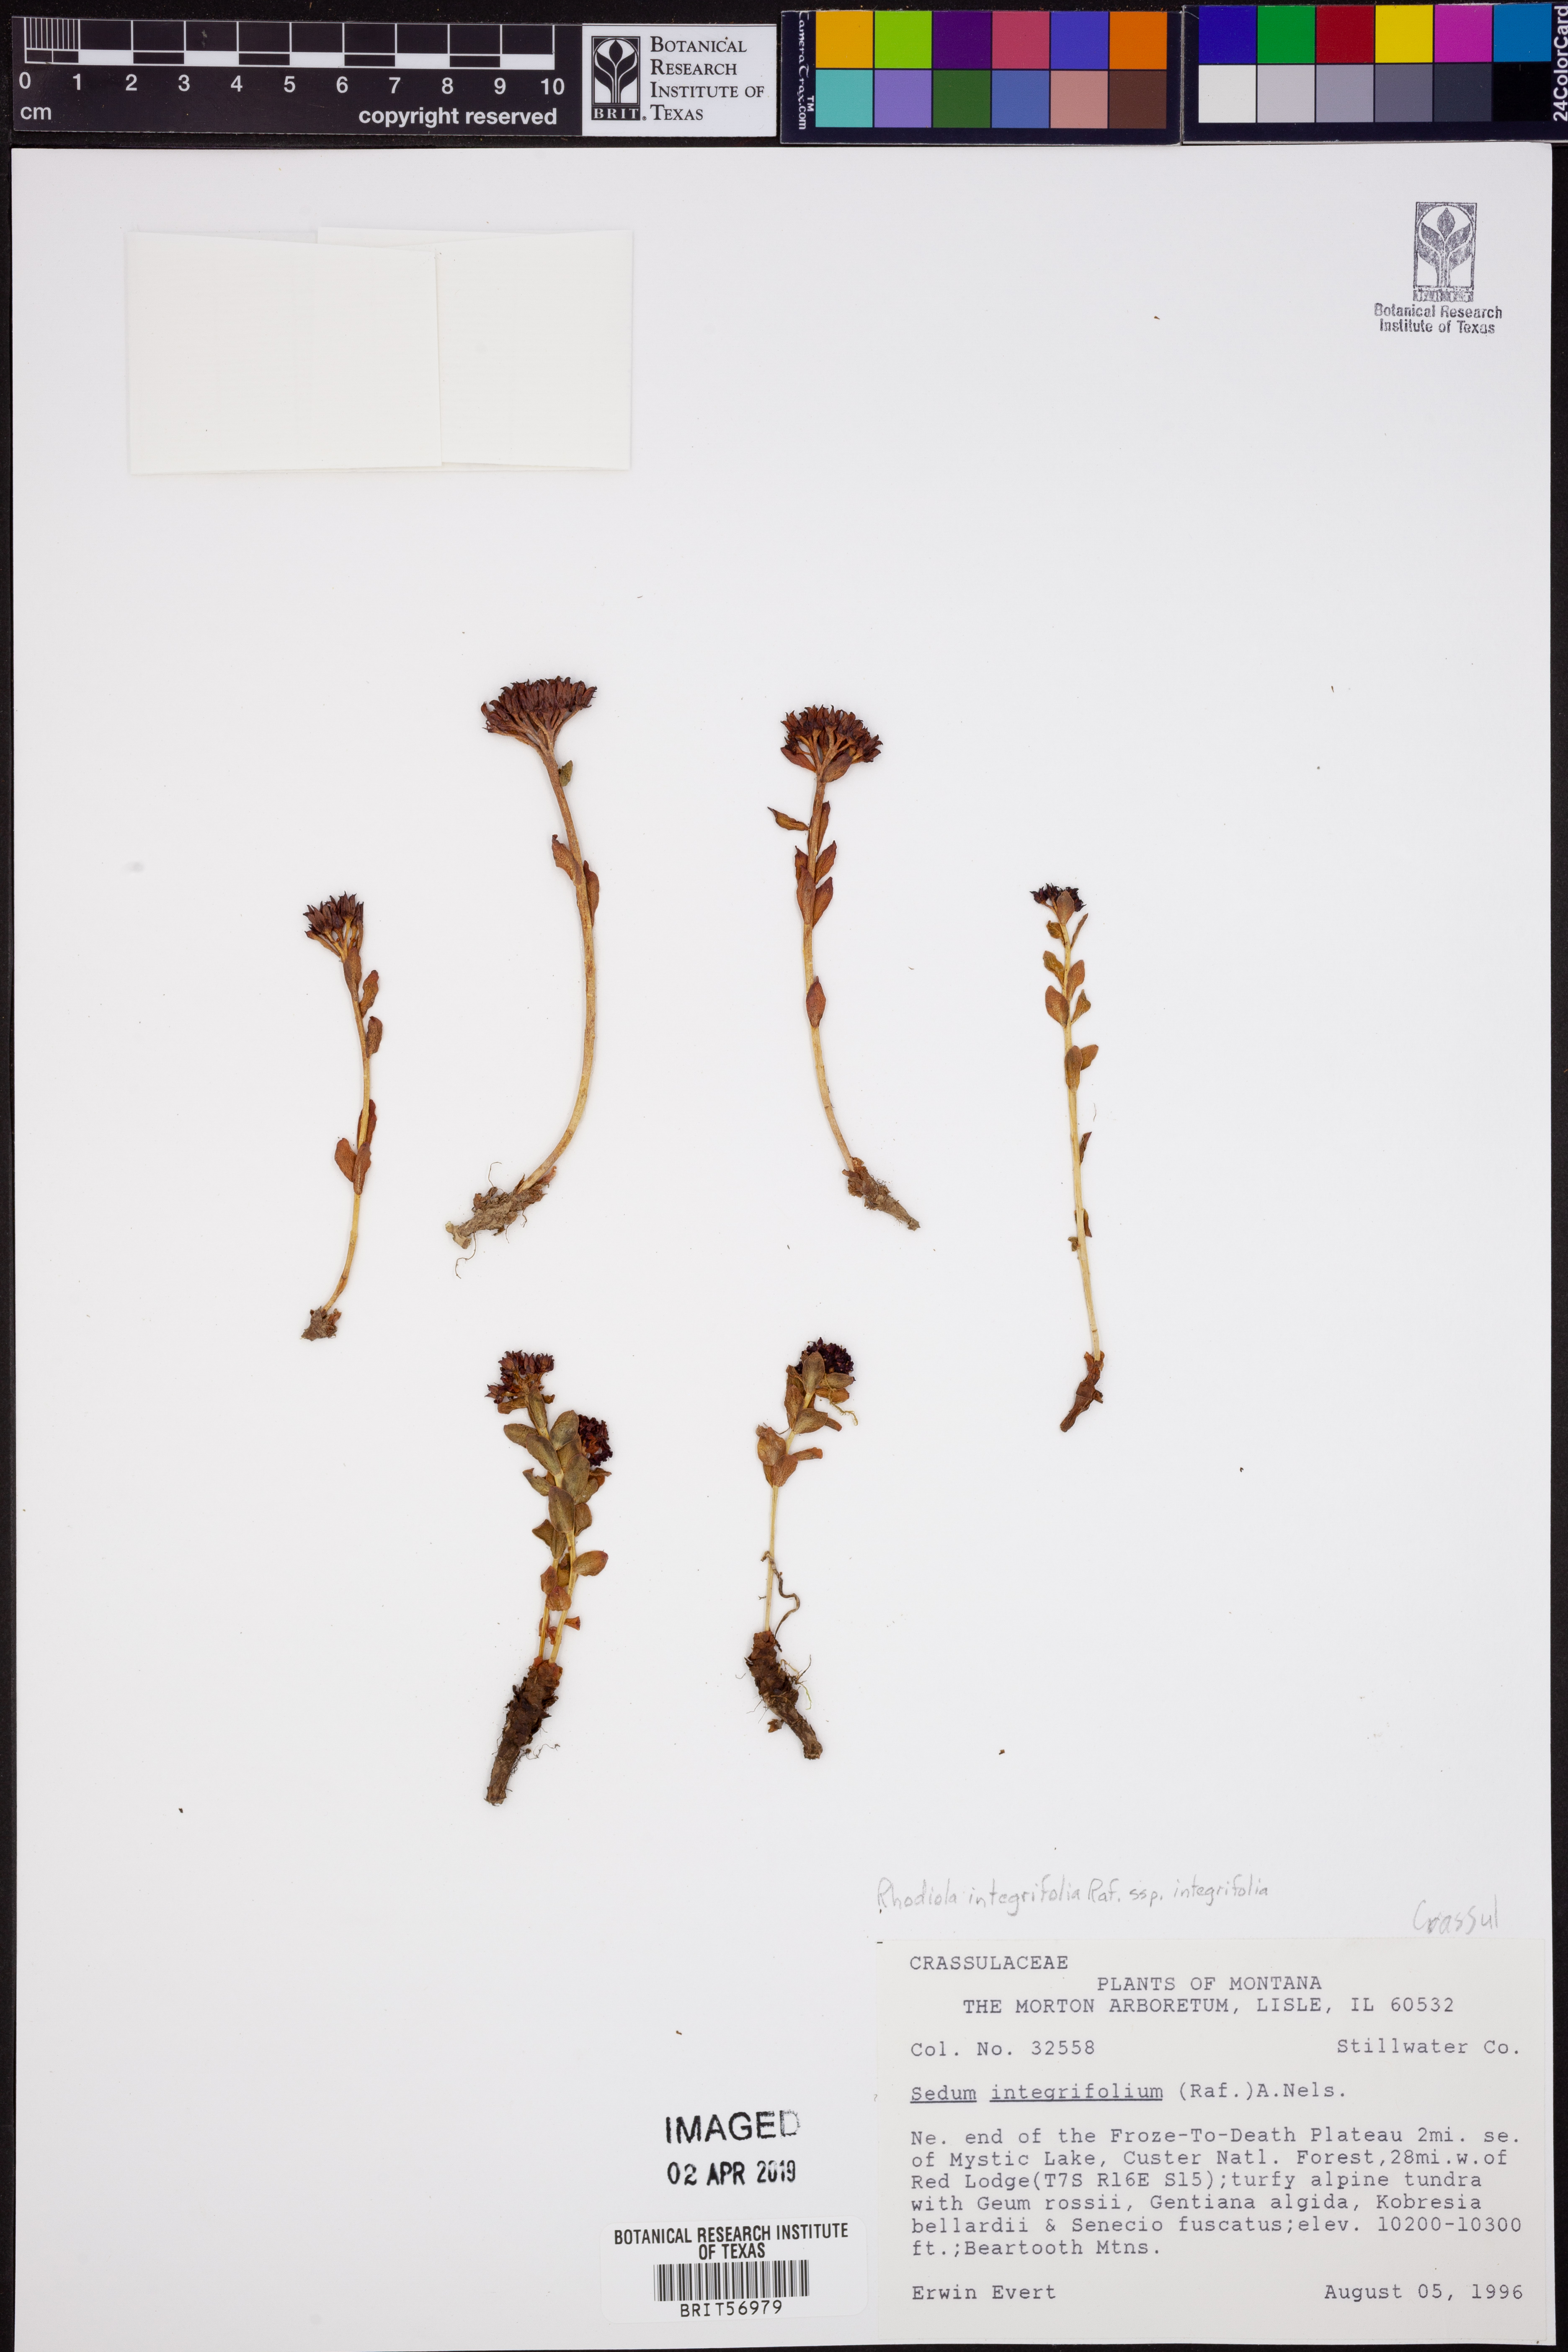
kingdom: Plantae
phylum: Tracheophyta
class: Magnoliopsida
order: Saxifragales
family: Crassulaceae
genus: Rhodiola
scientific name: Rhodiola integrifolia
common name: Western roseroot
